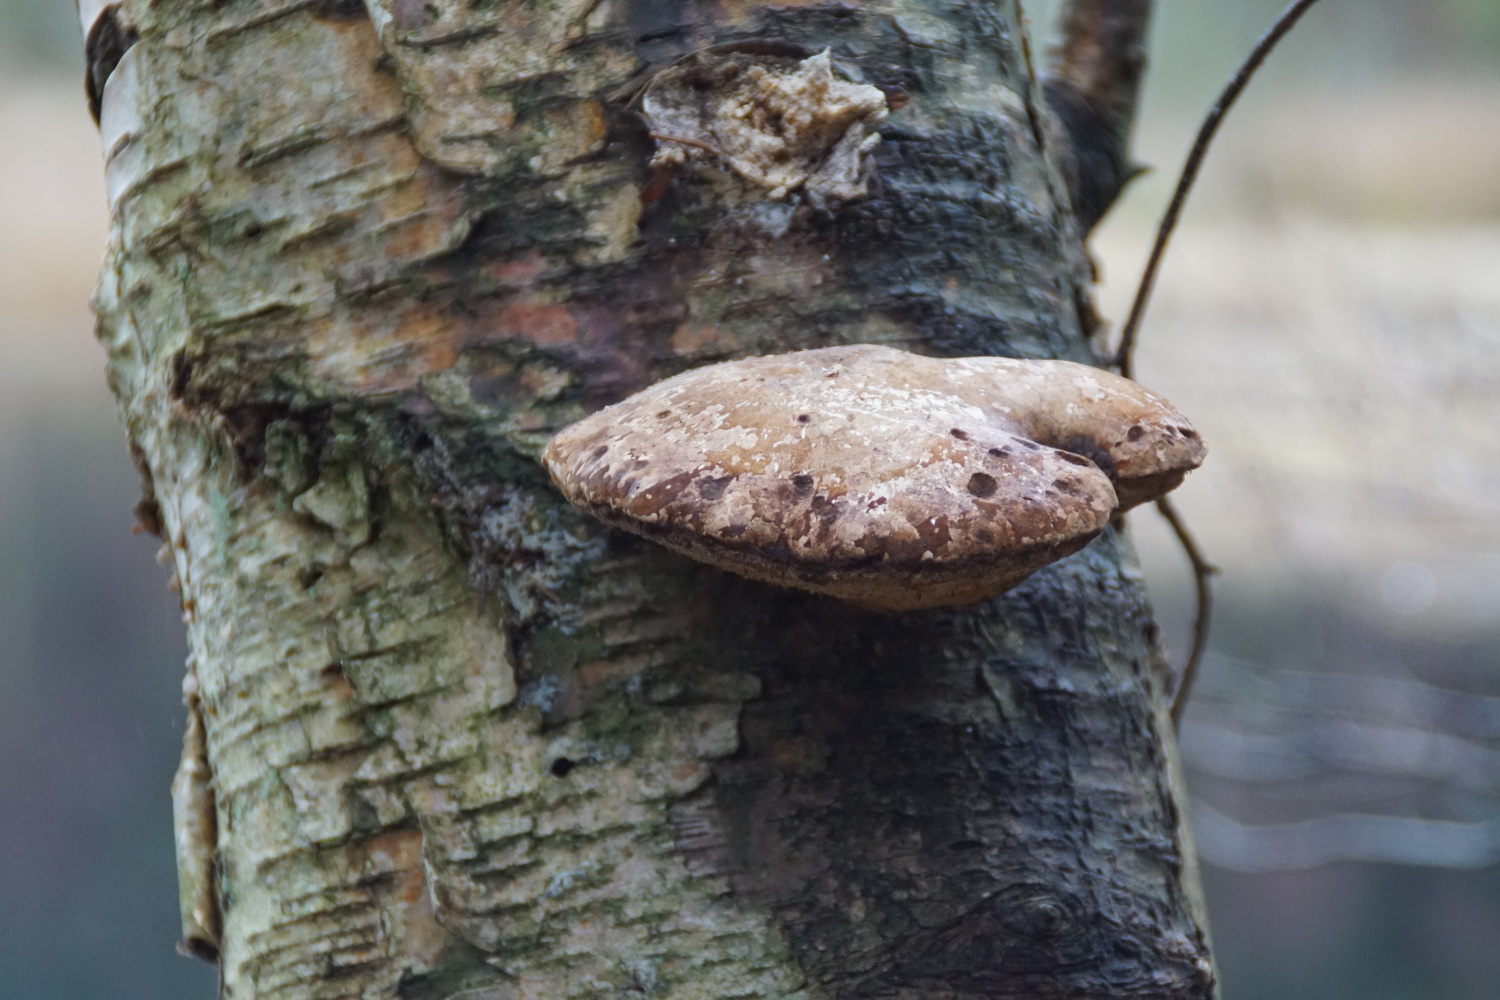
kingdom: Fungi
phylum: Basidiomycota
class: Agaricomycetes
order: Polyporales
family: Fomitopsidaceae
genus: Fomitopsis
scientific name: Fomitopsis betulina
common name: birkeporesvamp
